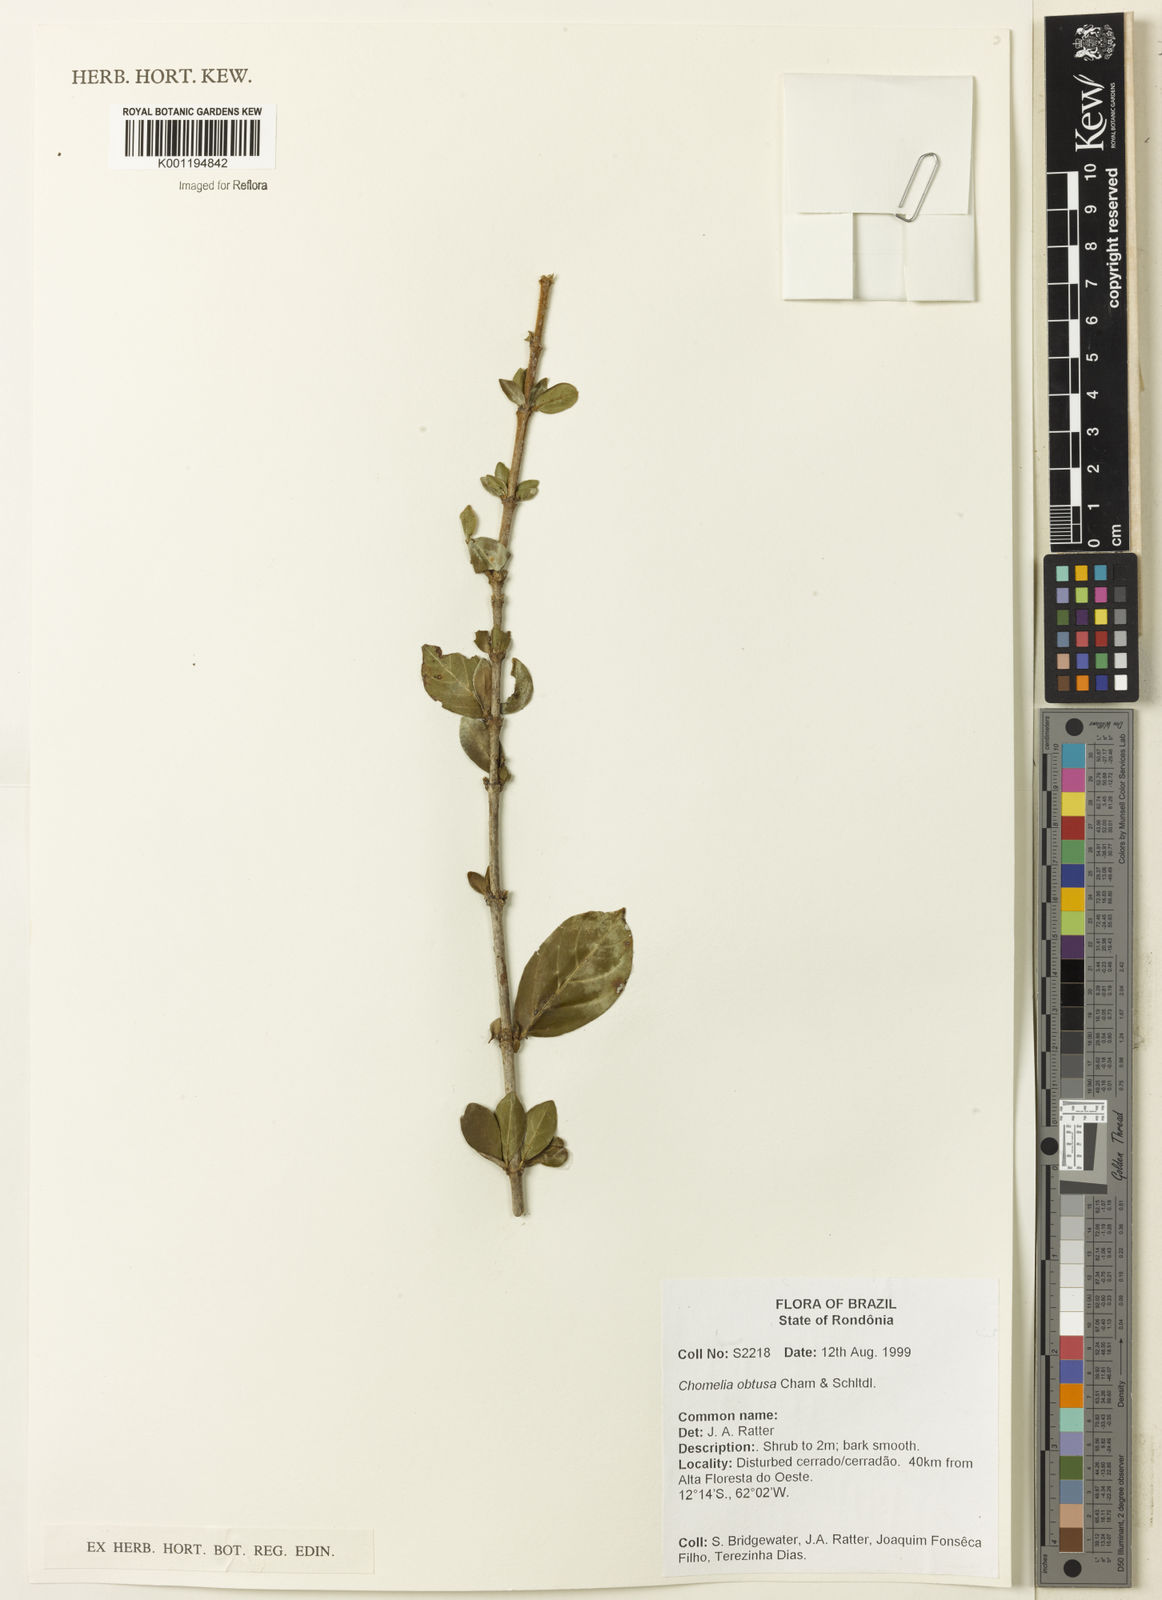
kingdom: Plantae
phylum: Tracheophyta
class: Magnoliopsida
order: Gentianales
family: Rubiaceae
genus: Chomelia
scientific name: Chomelia obtusa
